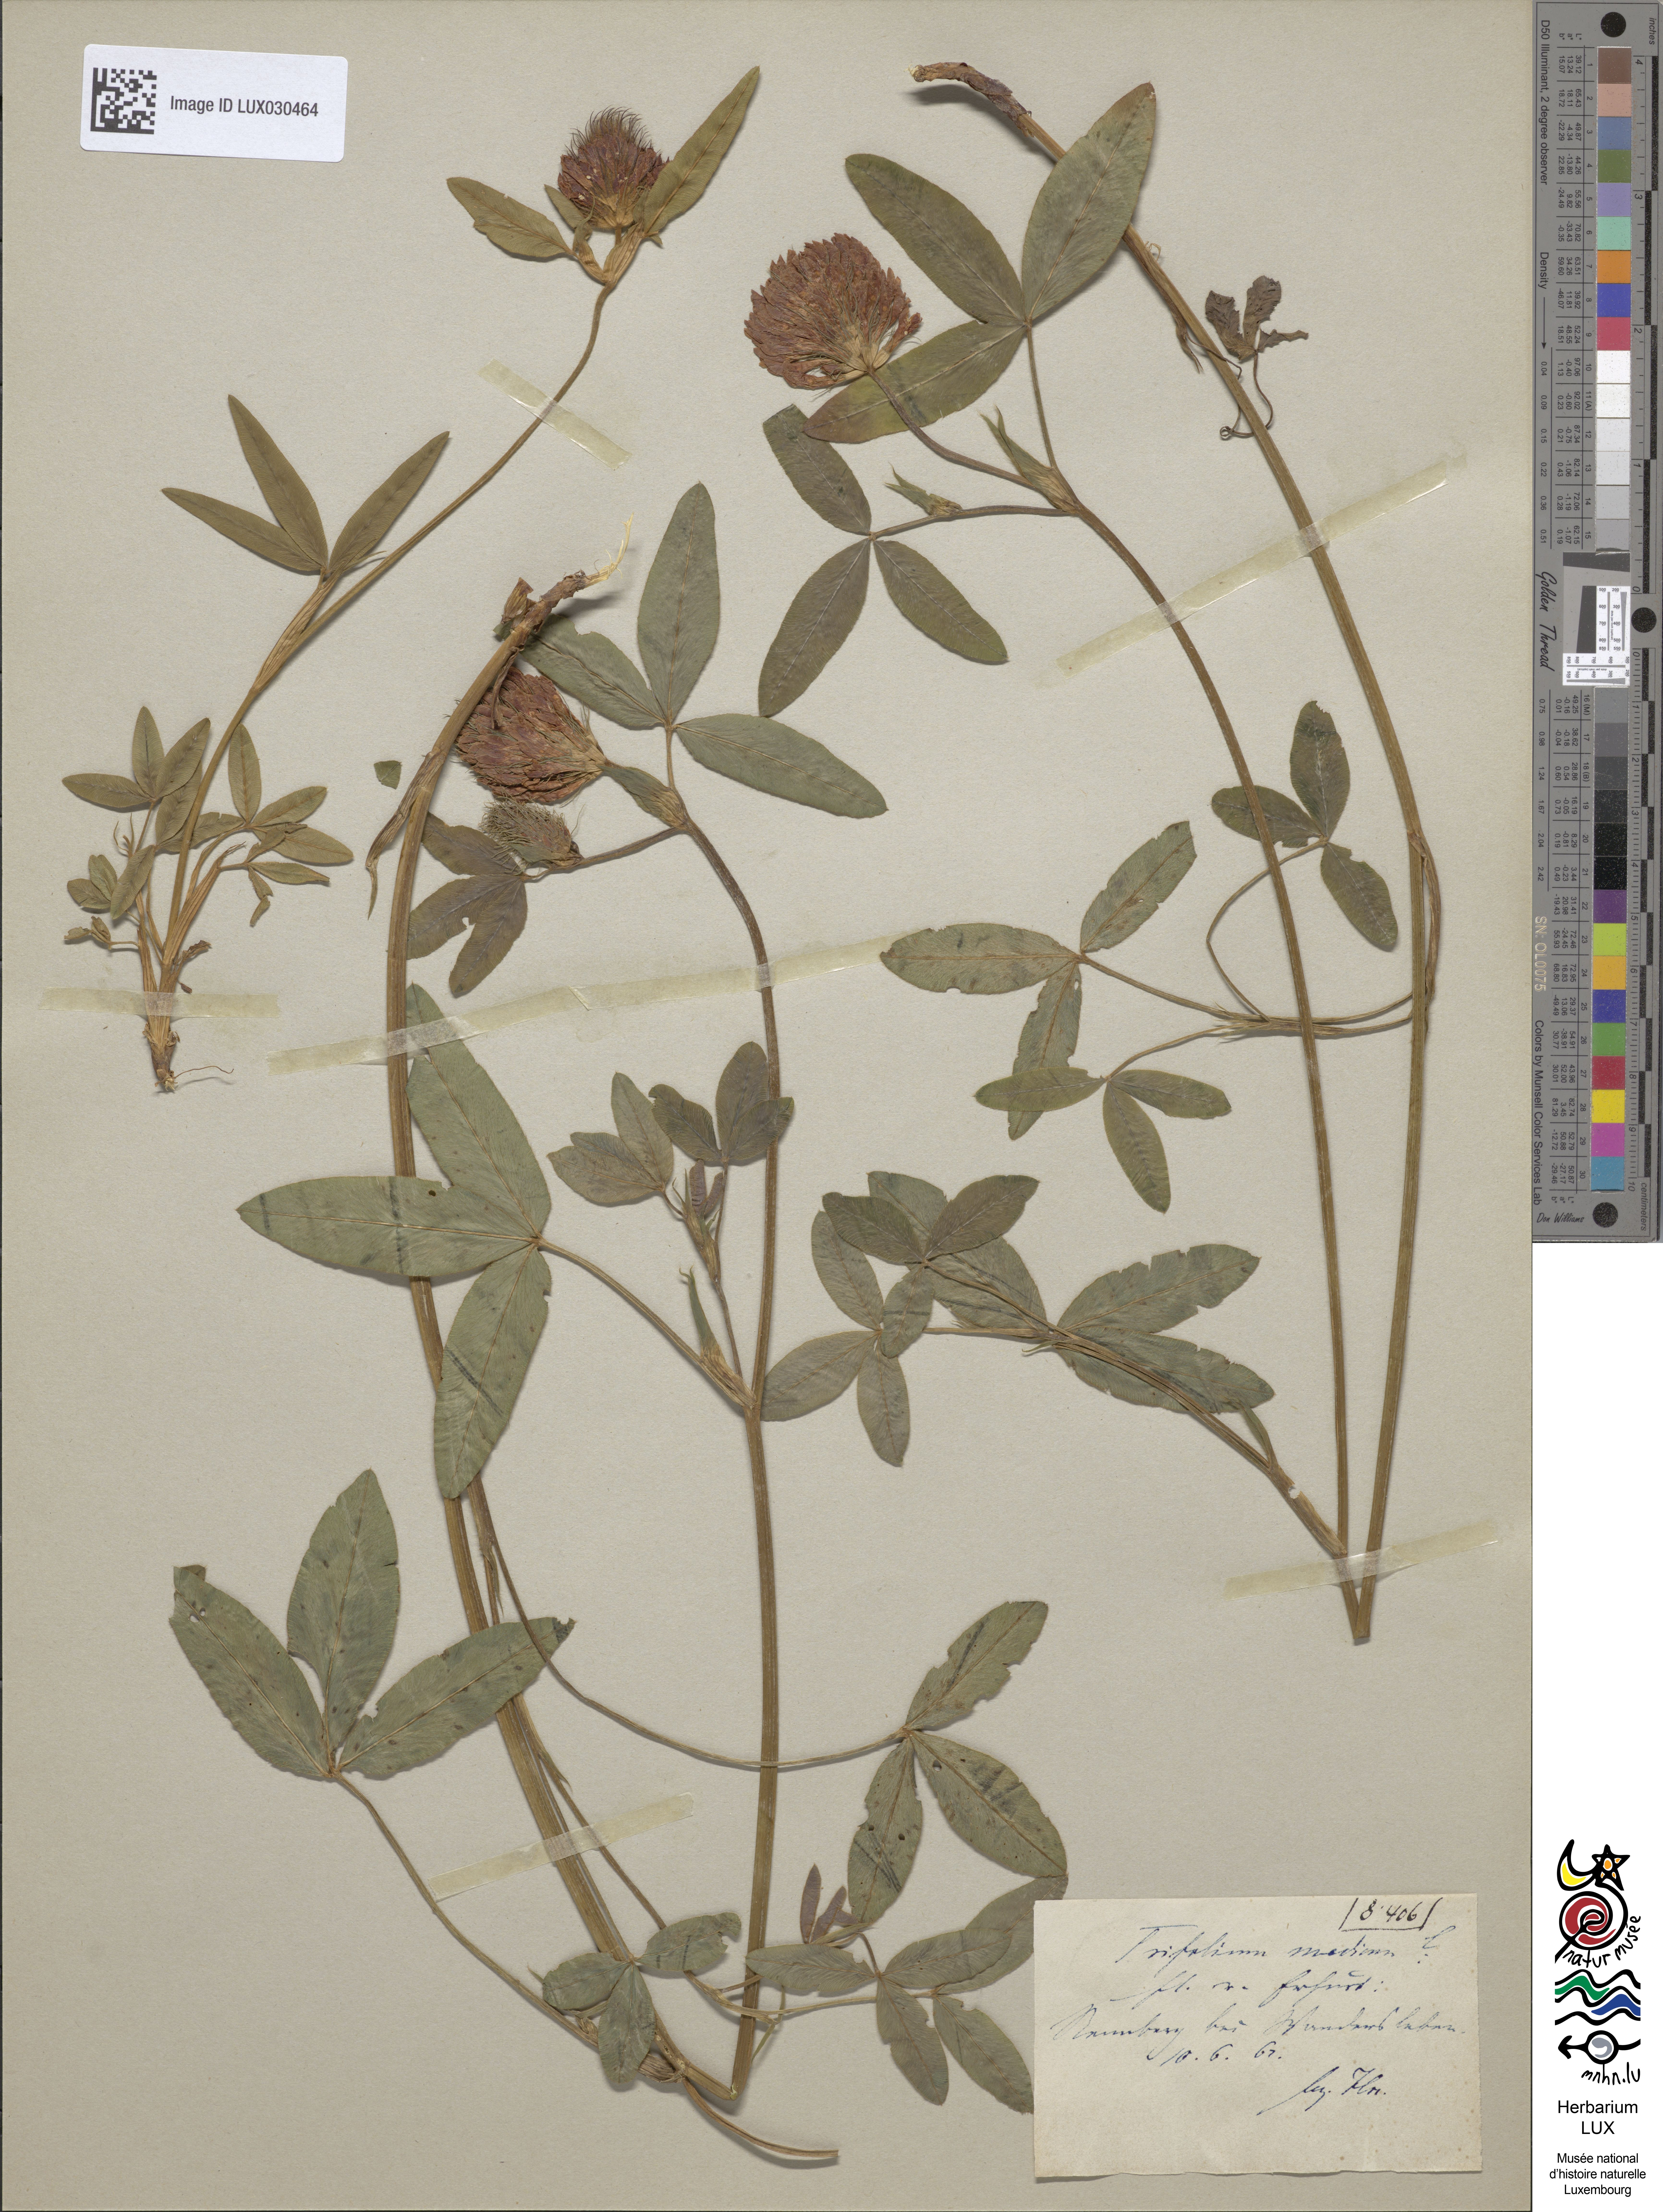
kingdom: Plantae
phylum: Tracheophyta
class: Magnoliopsida
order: Fabales
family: Fabaceae
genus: Trifolium
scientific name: Trifolium medium
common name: Zigzag clover
